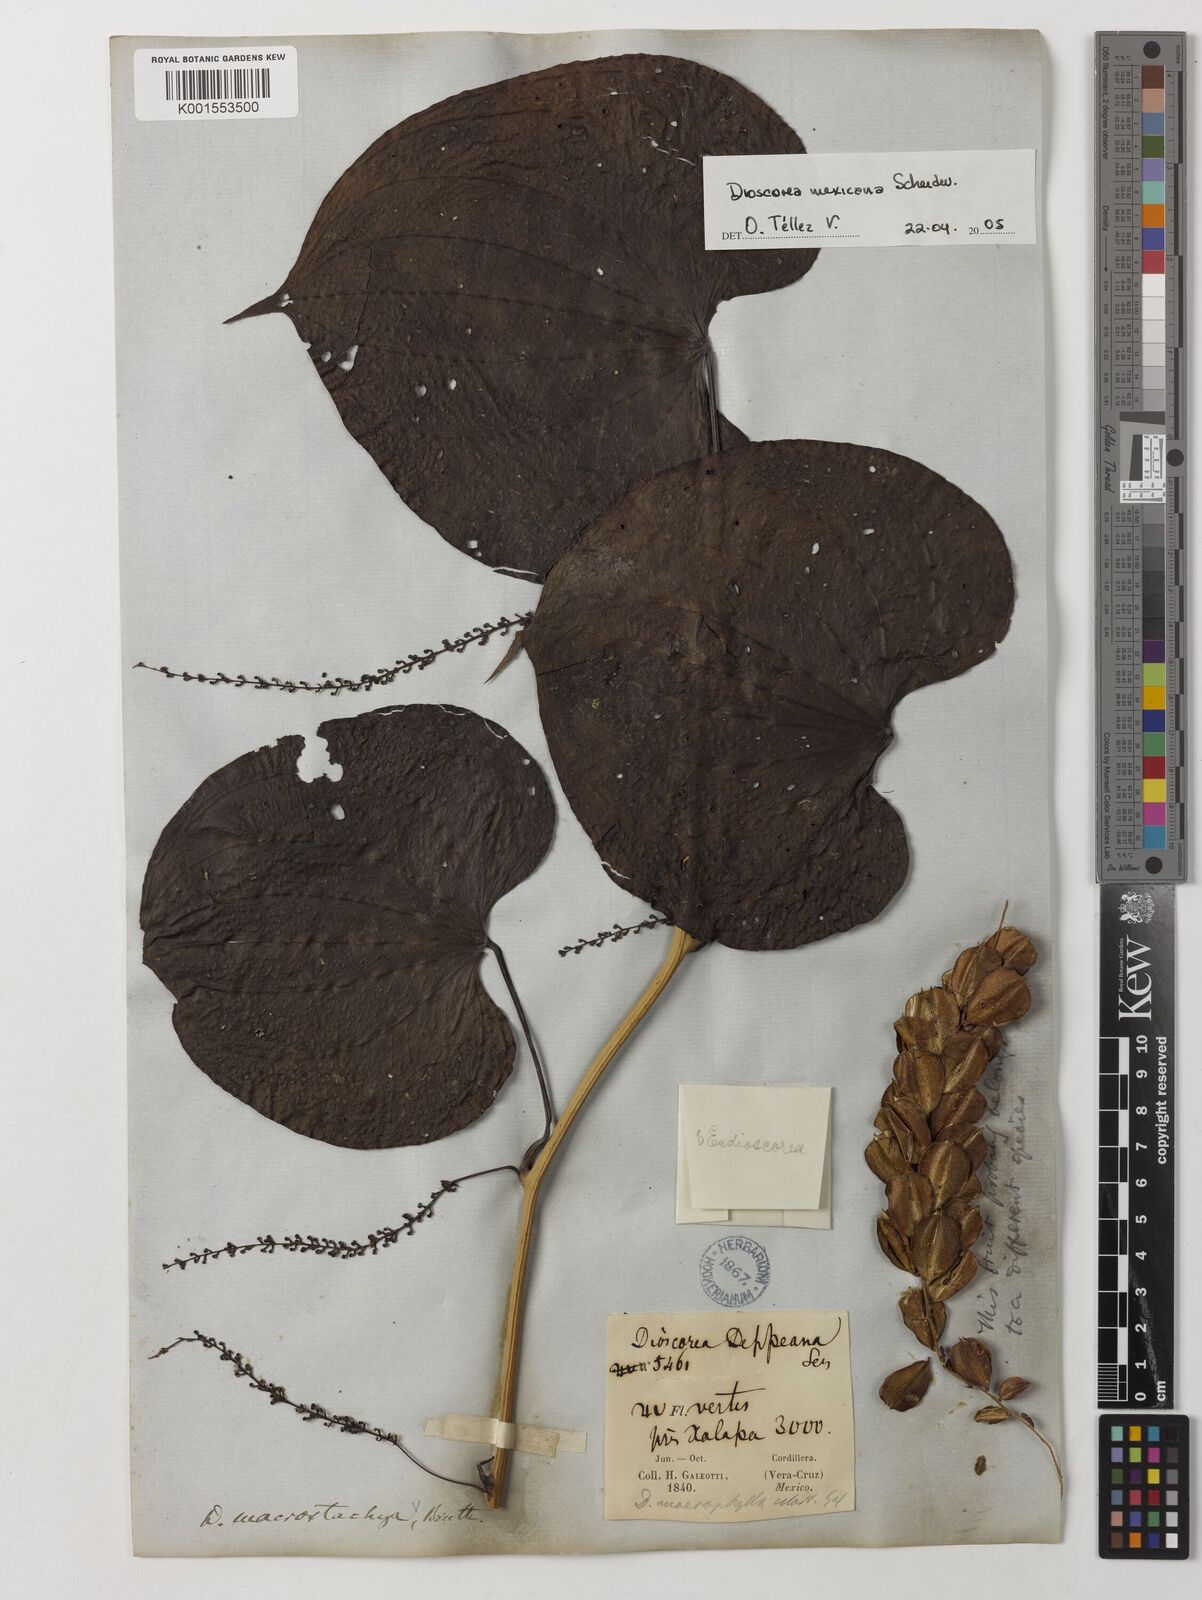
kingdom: Plantae
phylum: Tracheophyta
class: Liliopsida
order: Dioscoreales
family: Dioscoreaceae
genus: Dioscorea
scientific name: Dioscorea mexicana
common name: Mexican yam
